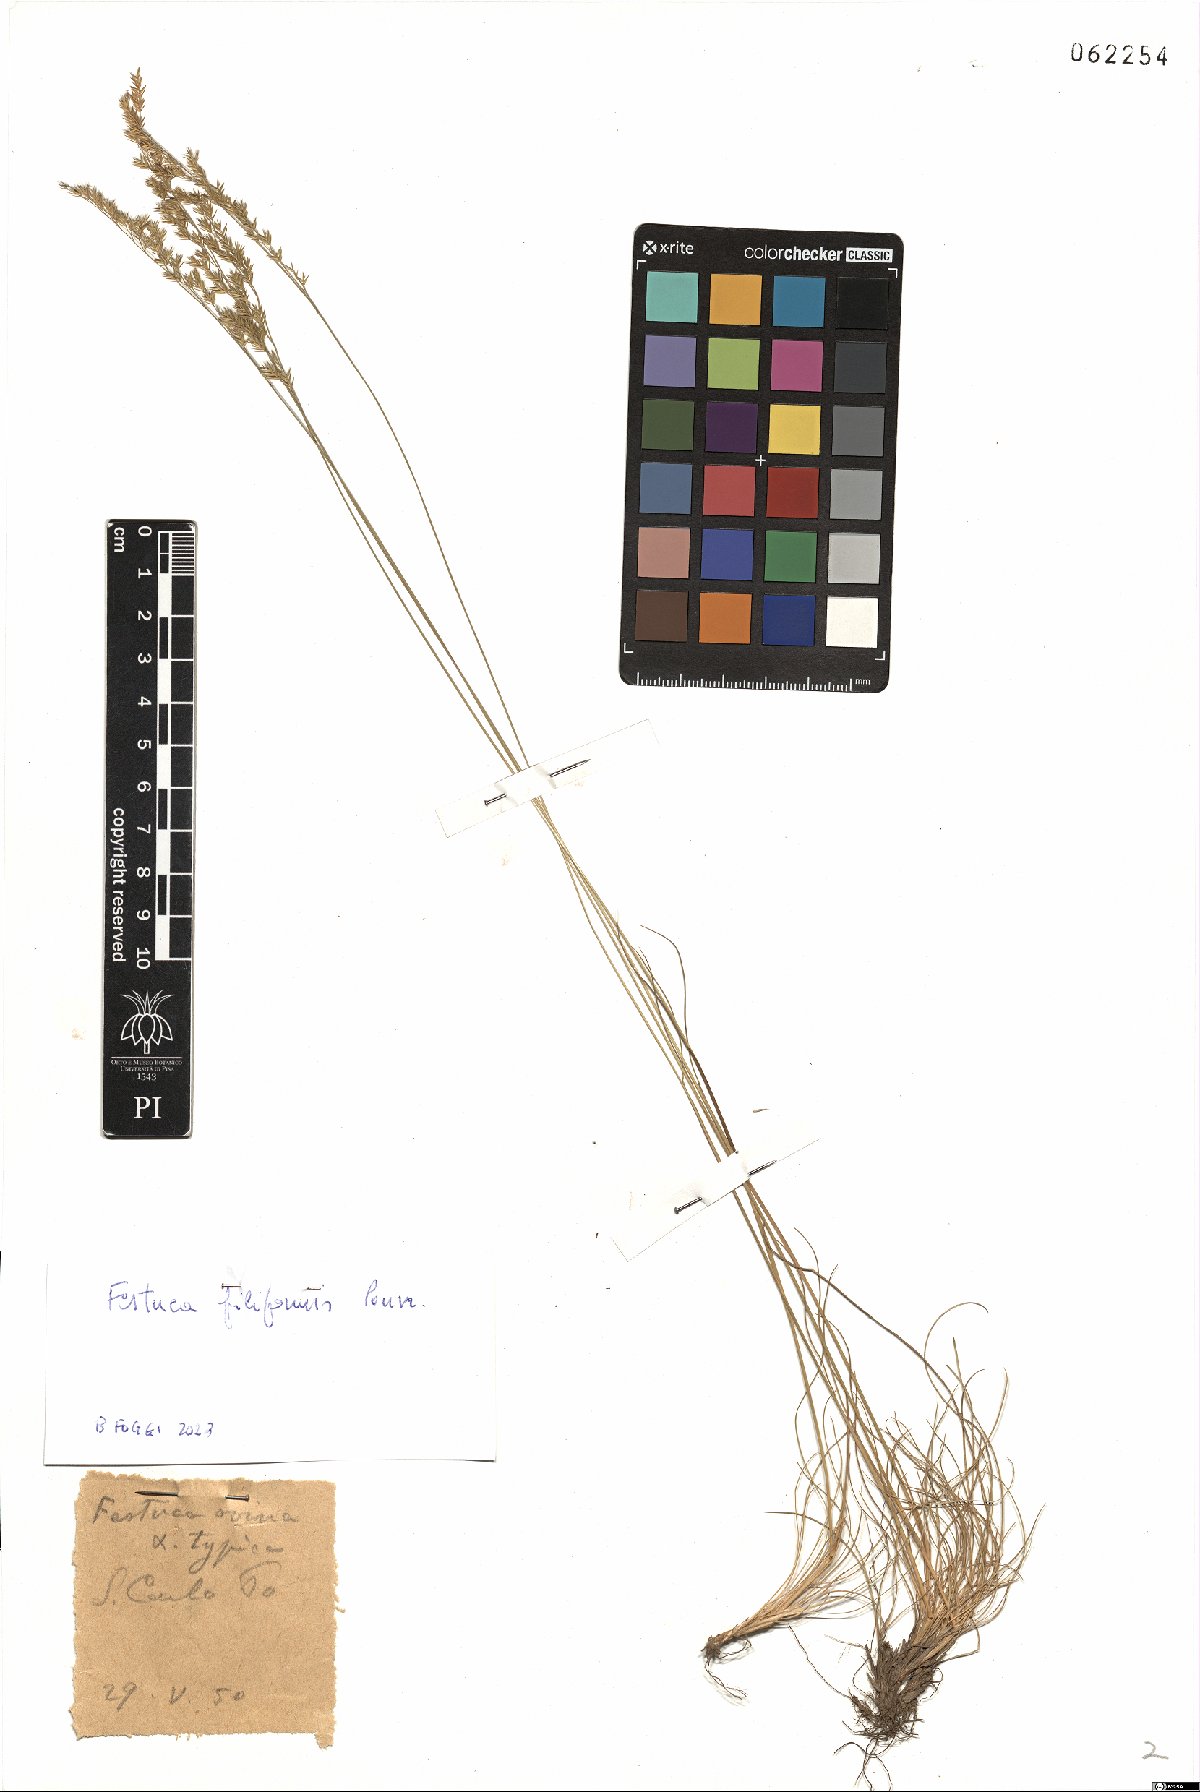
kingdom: Plantae
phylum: Tracheophyta
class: Liliopsida
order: Poales
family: Poaceae
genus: Festuca
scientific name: Festuca filiformis
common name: Fine-leaved sheep's-fescue
